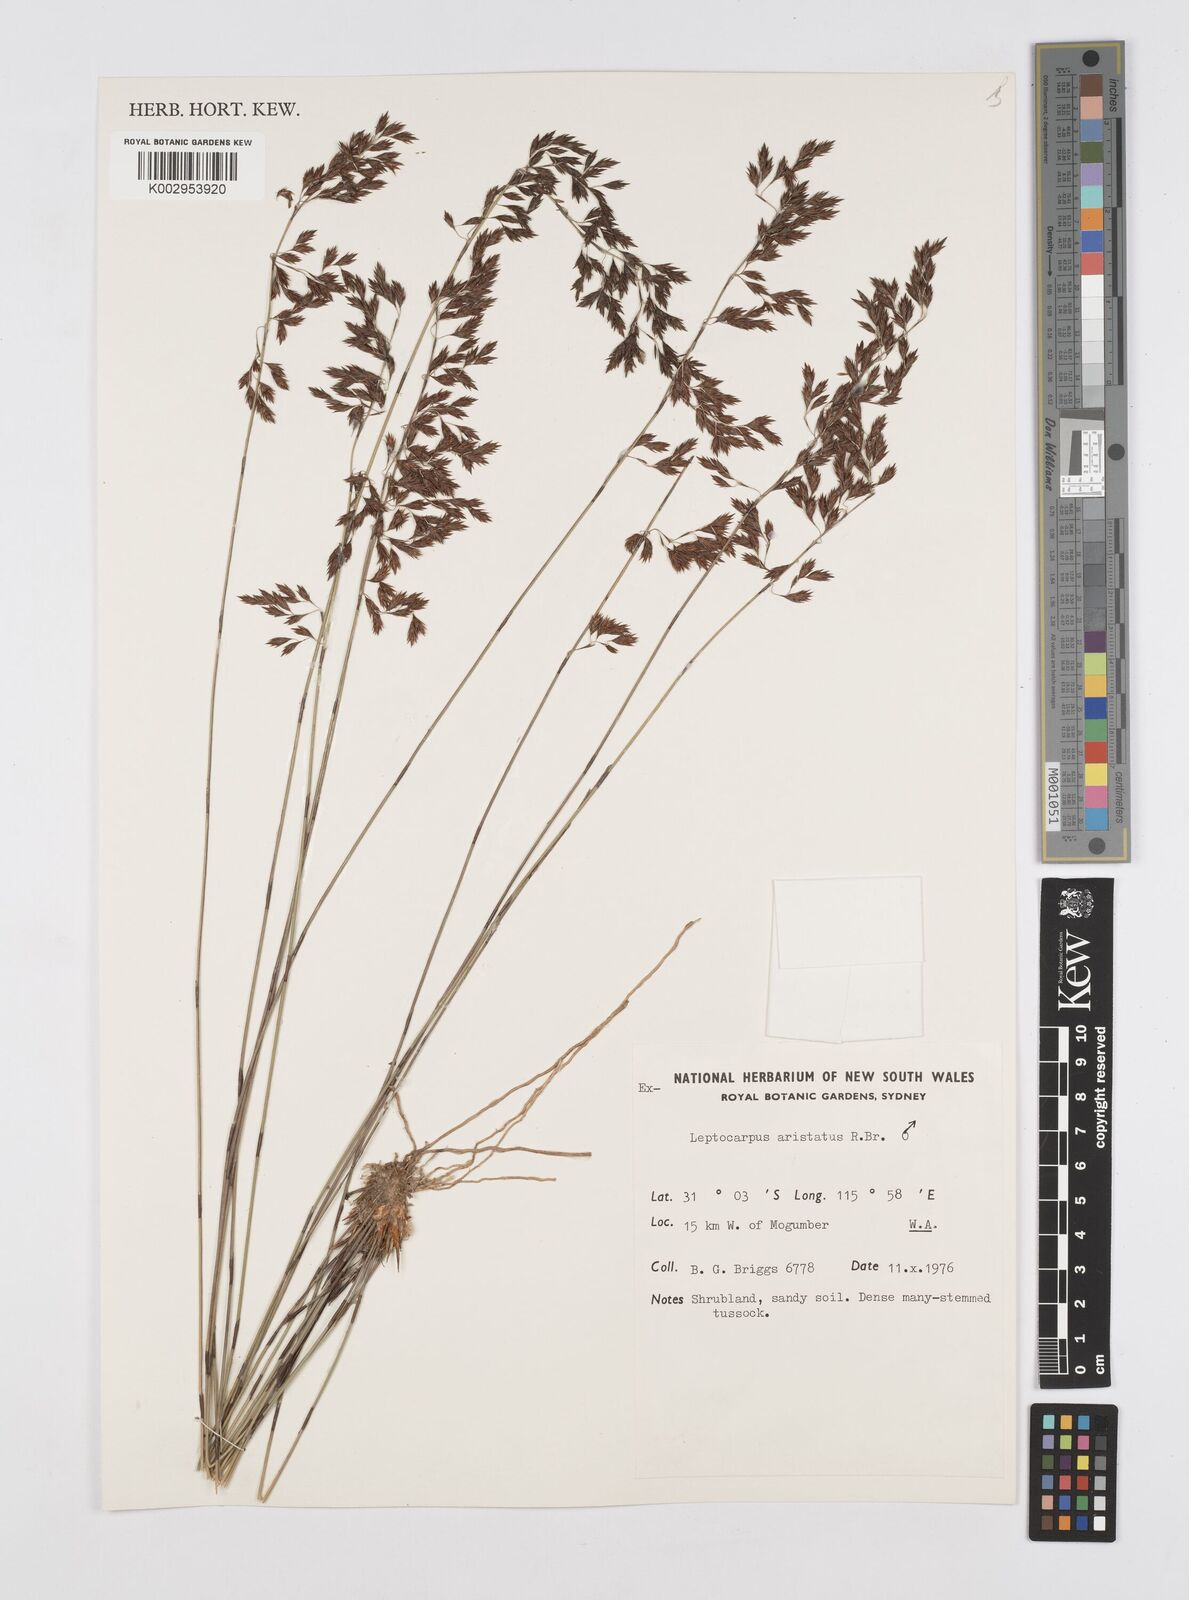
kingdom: Plantae
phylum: Tracheophyta
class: Liliopsida
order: Poales
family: Restionaceae
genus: Chaetanthus
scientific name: Chaetanthus aristatus
